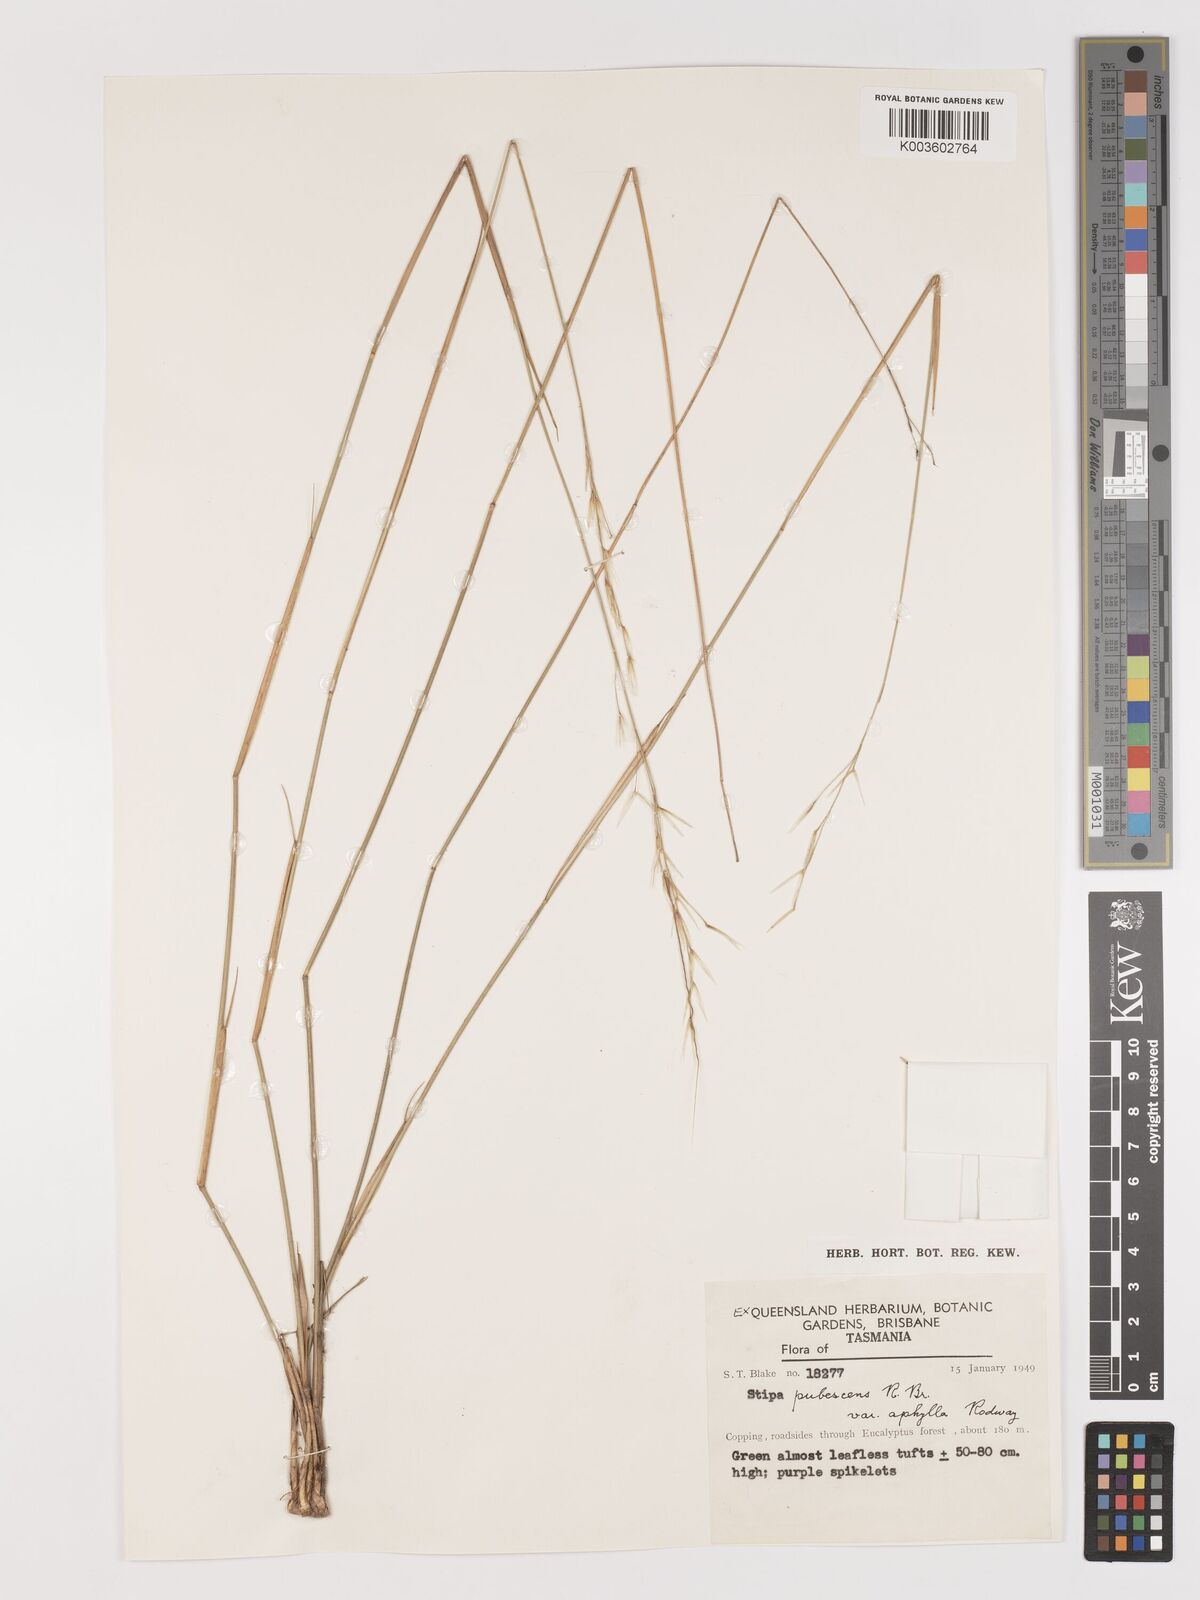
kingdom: Plantae
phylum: Tracheophyta
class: Liliopsida
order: Poales
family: Poaceae
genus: Austrostipa
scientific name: Austrostipa aphylla
